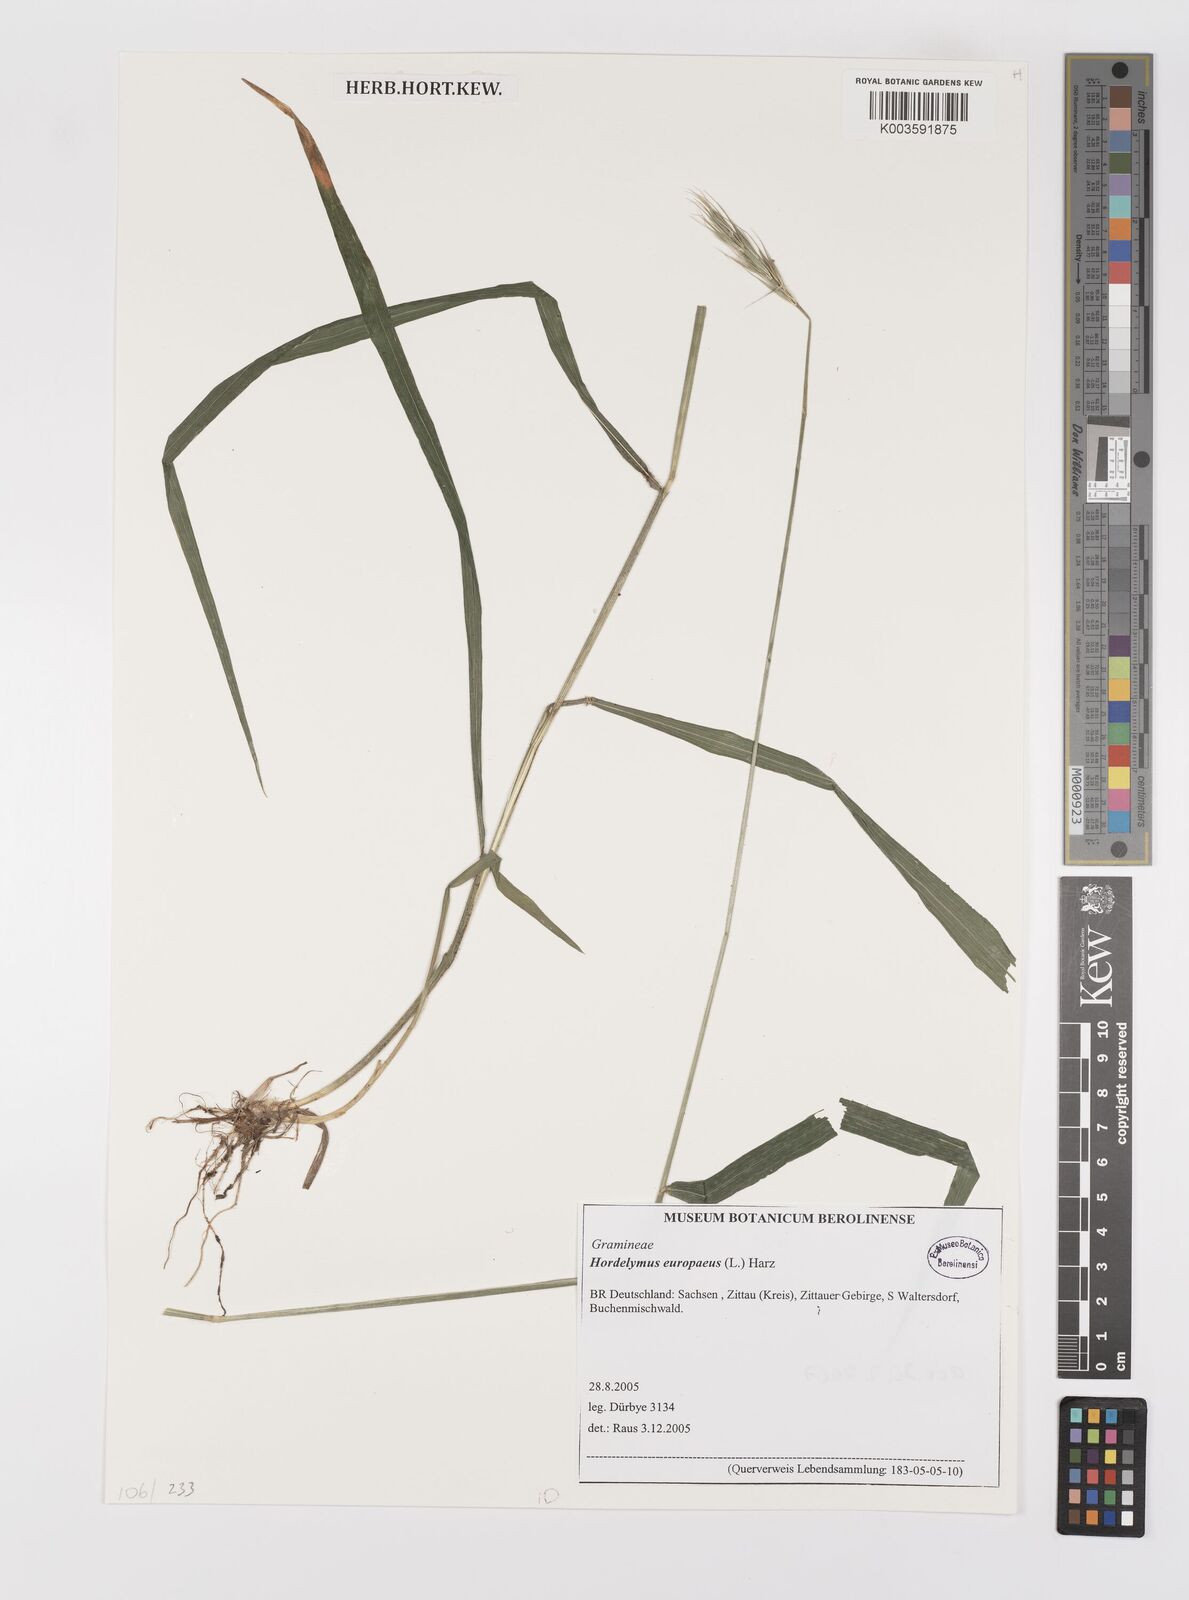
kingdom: Plantae
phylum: Tracheophyta
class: Liliopsida
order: Poales
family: Poaceae
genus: Hordelymus
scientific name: Hordelymus europaeus
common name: Wood-barley
